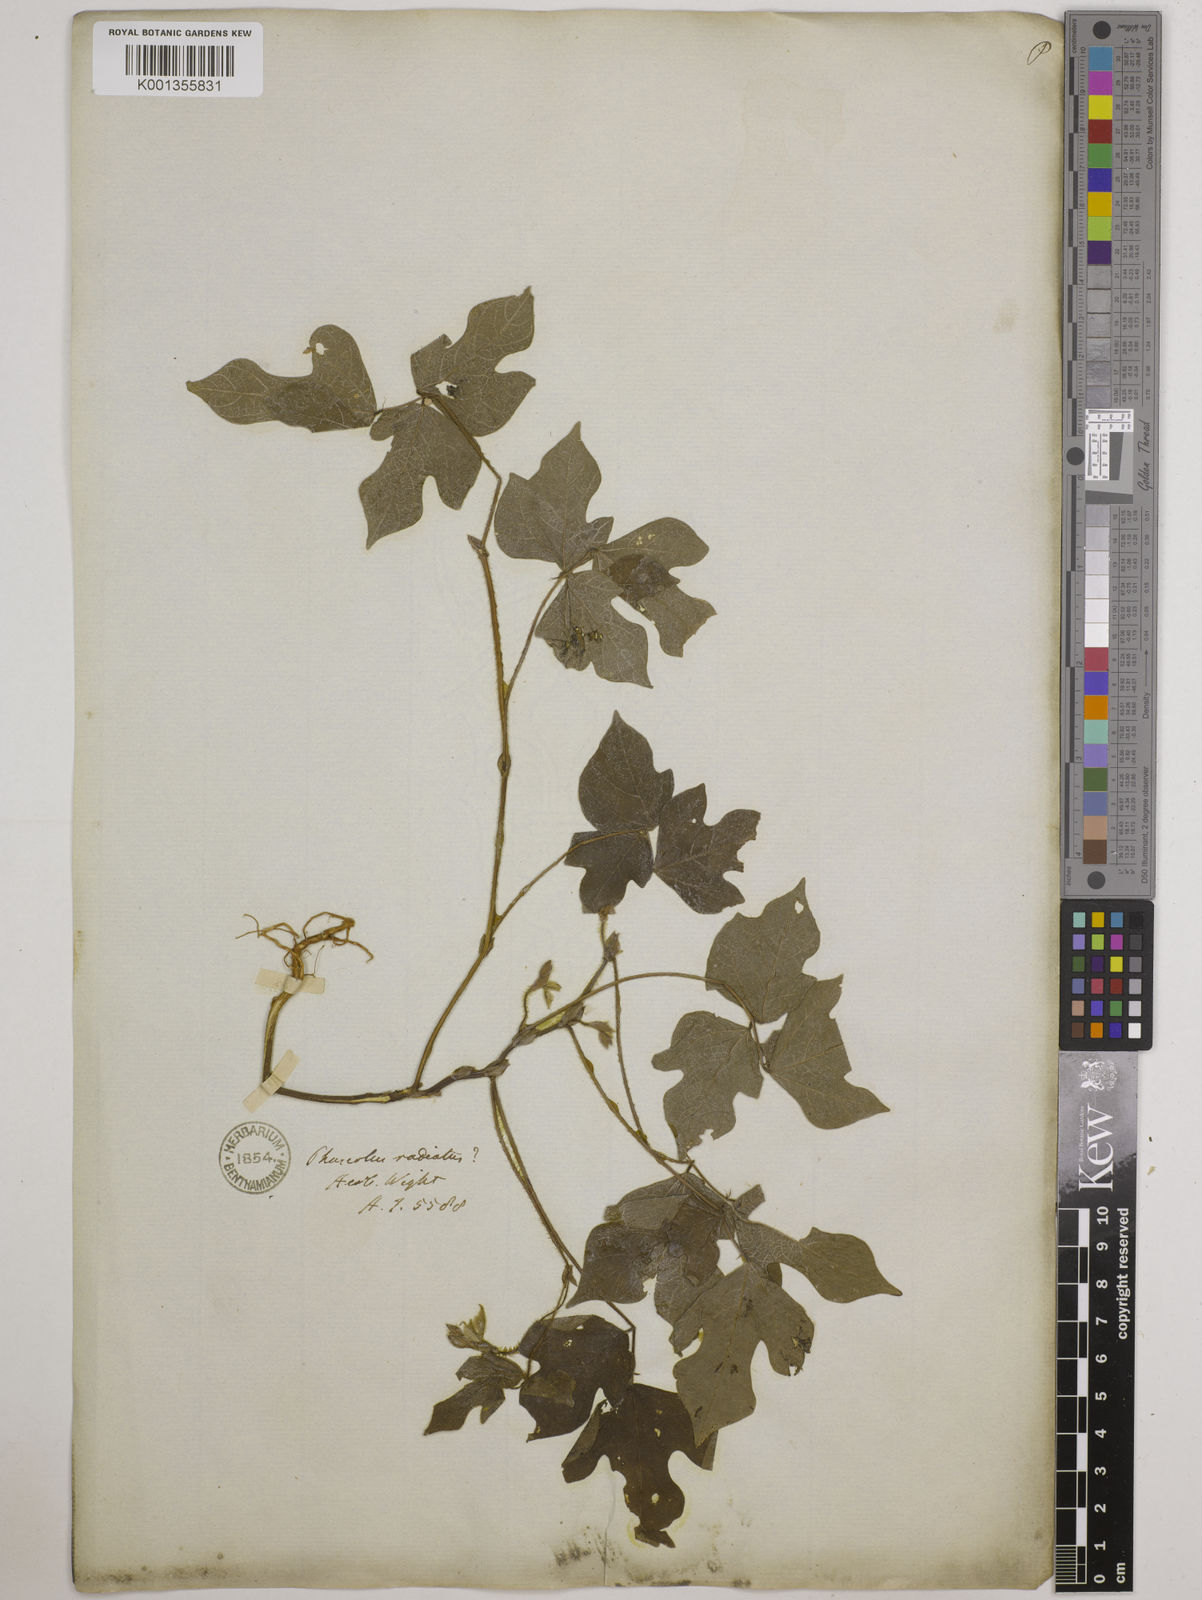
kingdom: Plantae
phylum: Tracheophyta
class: Magnoliopsida
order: Fabales
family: Fabaceae
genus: Vigna
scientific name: Vigna radiata
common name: Mung-bean
